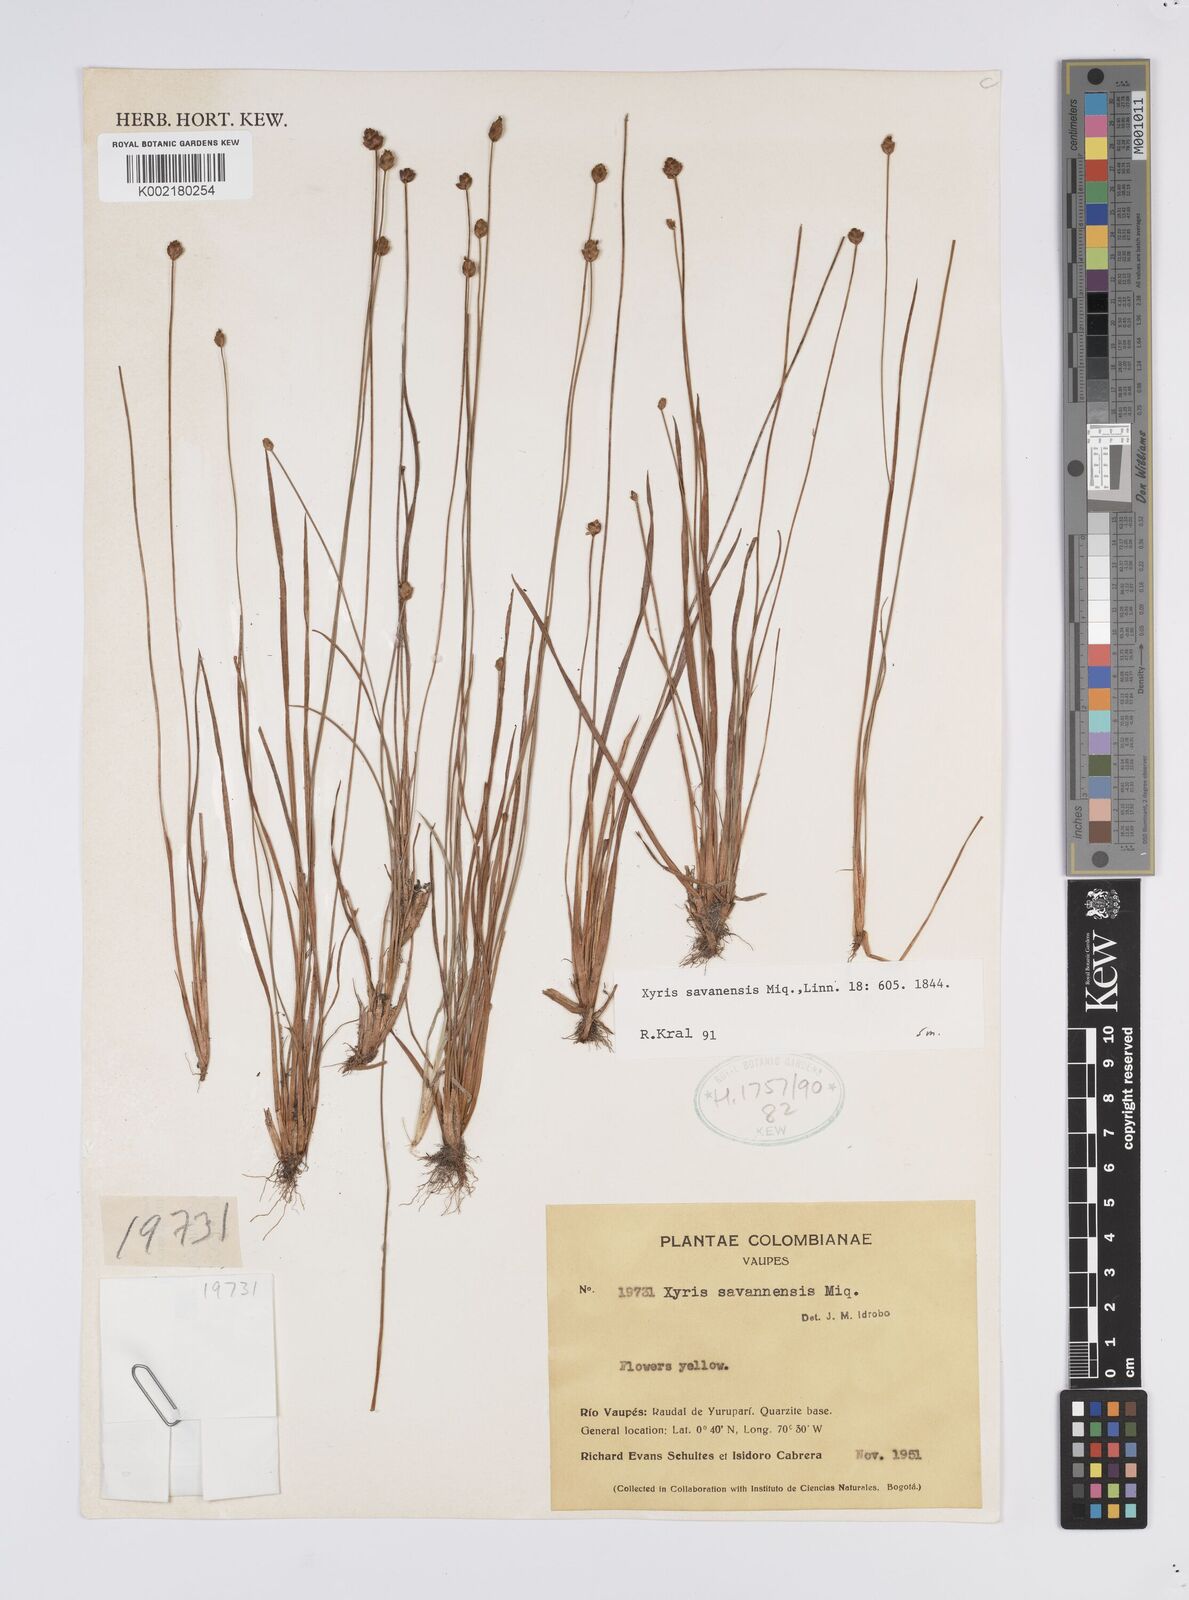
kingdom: Plantae
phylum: Tracheophyta
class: Liliopsida
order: Poales
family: Xyridaceae
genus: Xyris
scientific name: Xyris savanensis
